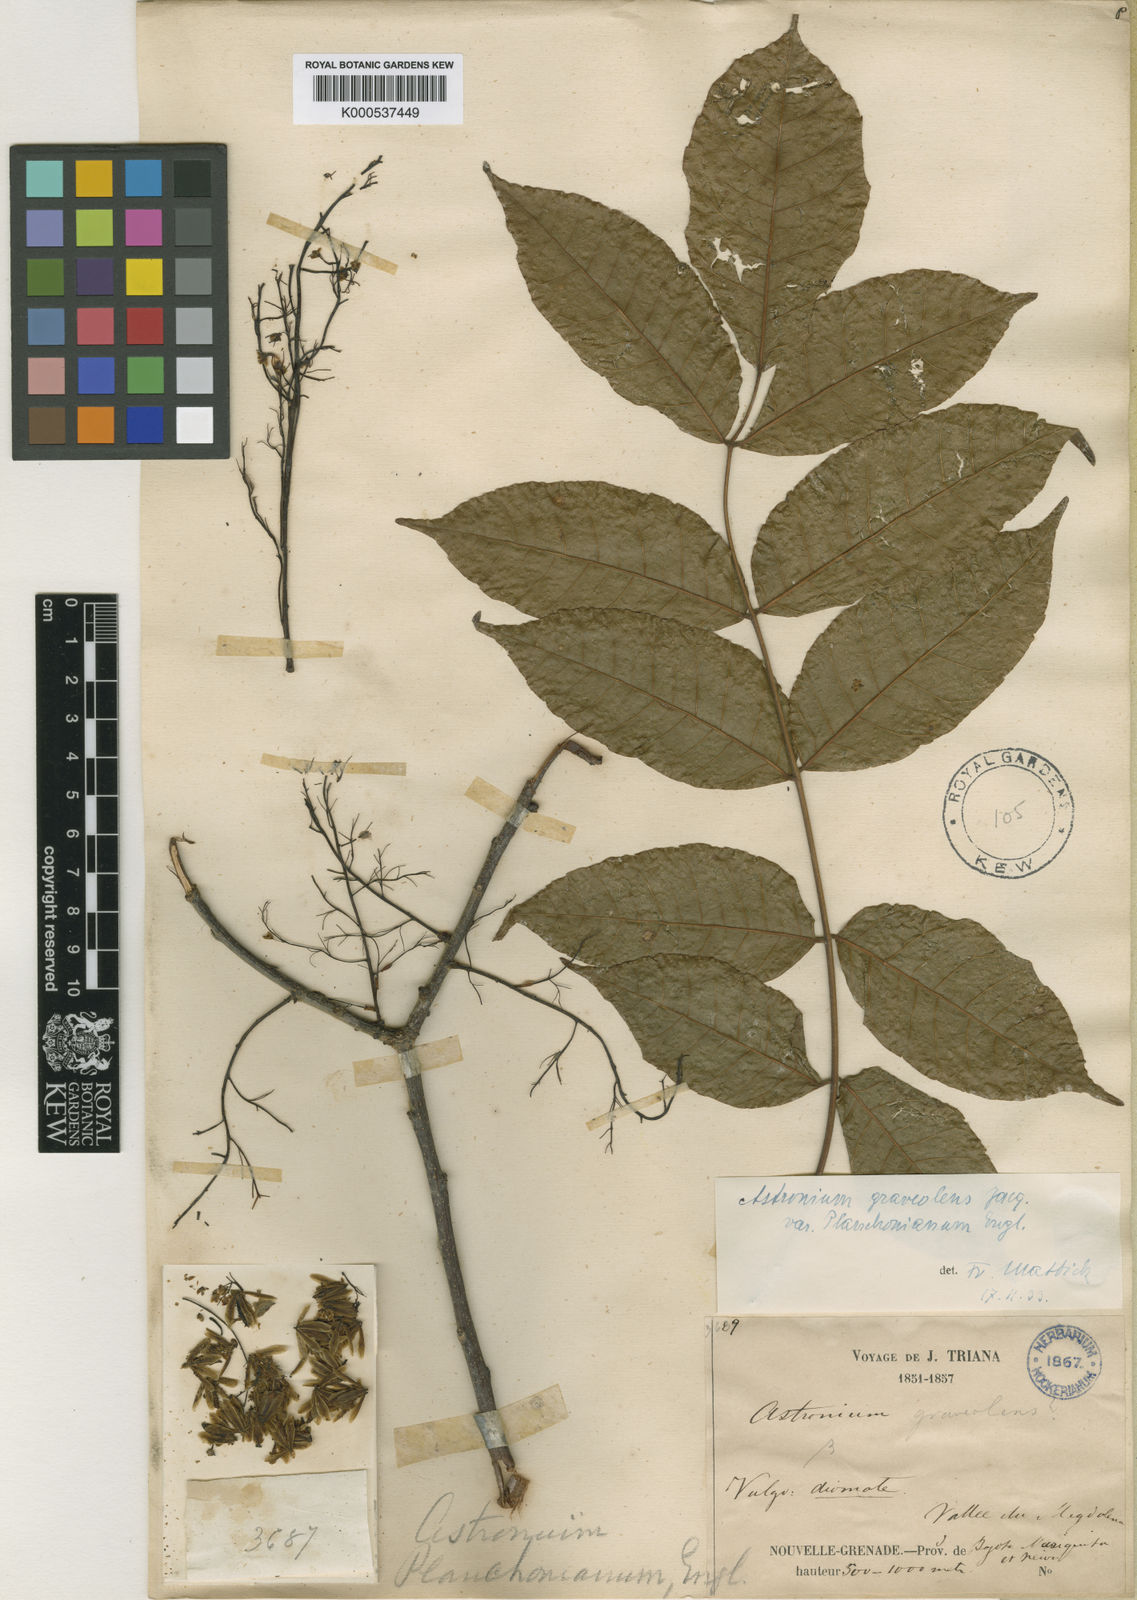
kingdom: Plantae
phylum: Tracheophyta
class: Magnoliopsida
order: Sapindales
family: Anacardiaceae
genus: Astronium
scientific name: Astronium graveolens
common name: Glassywood
